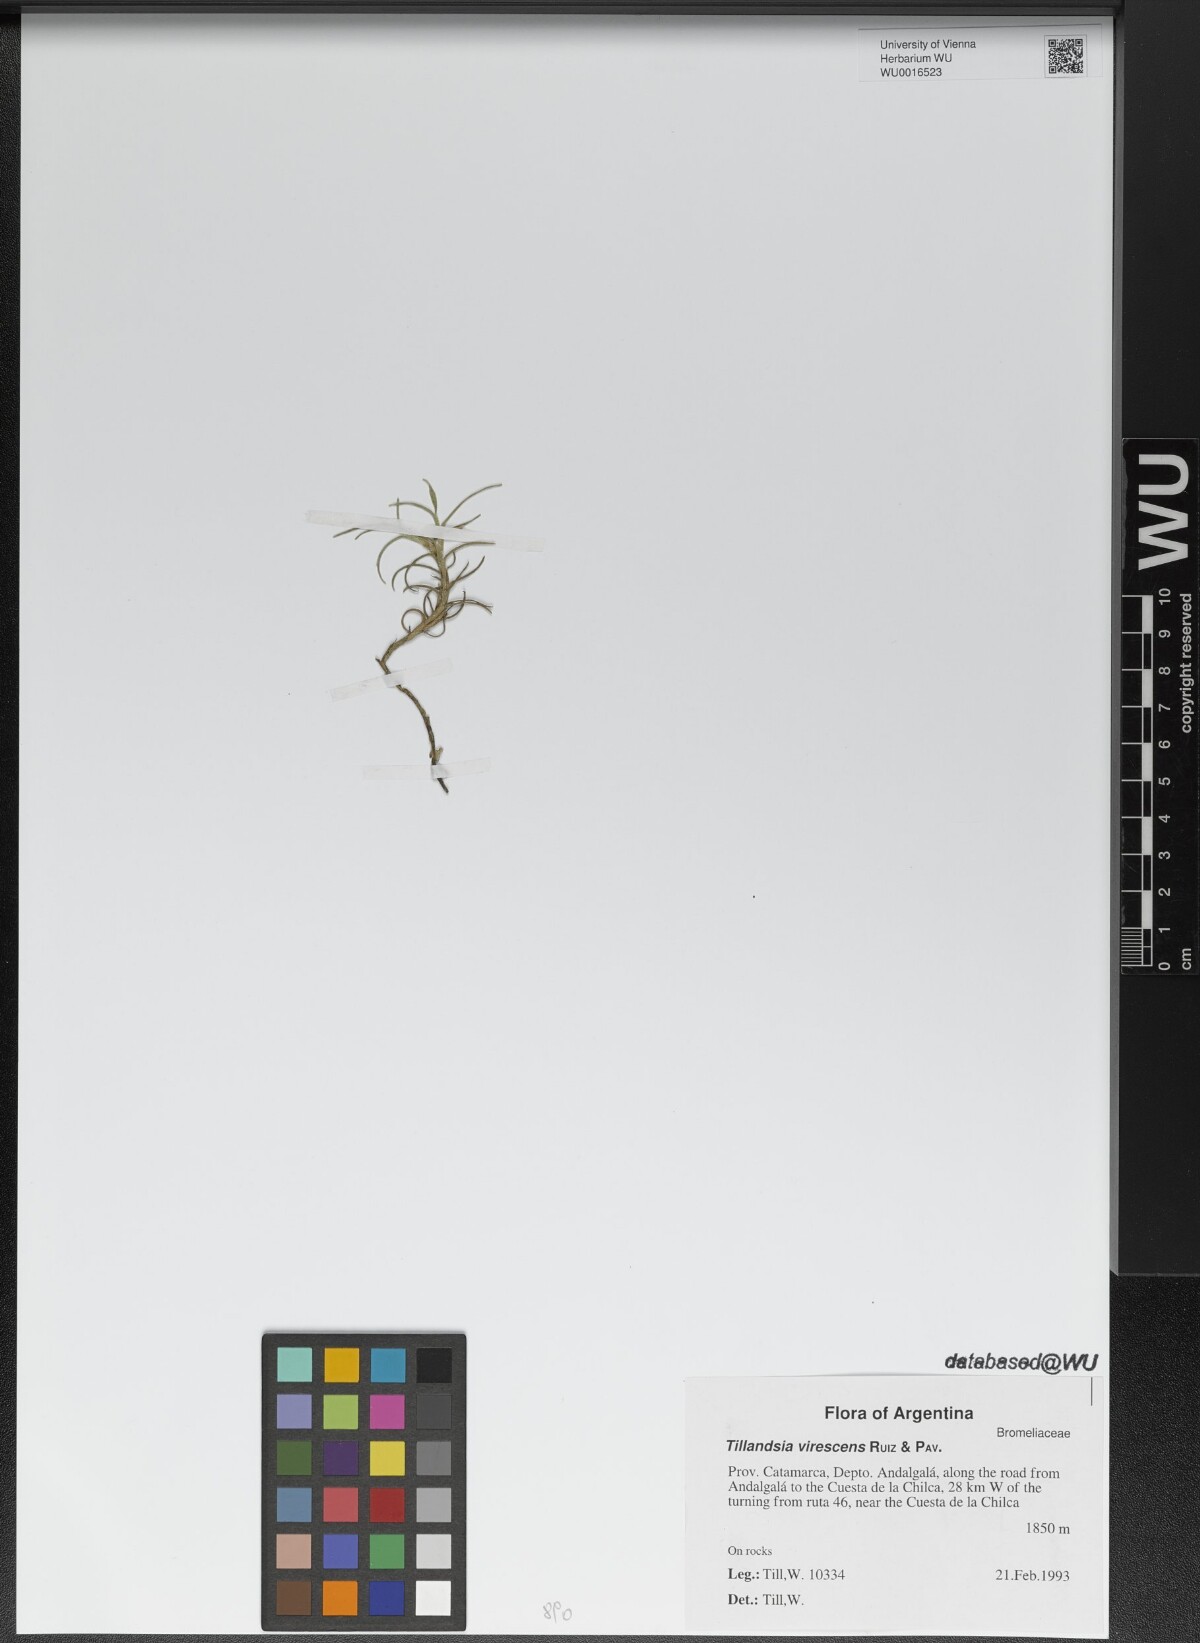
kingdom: Plantae
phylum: Tracheophyta
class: Liliopsida
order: Poales
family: Bromeliaceae
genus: Tillandsia
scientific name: Tillandsia virescens
